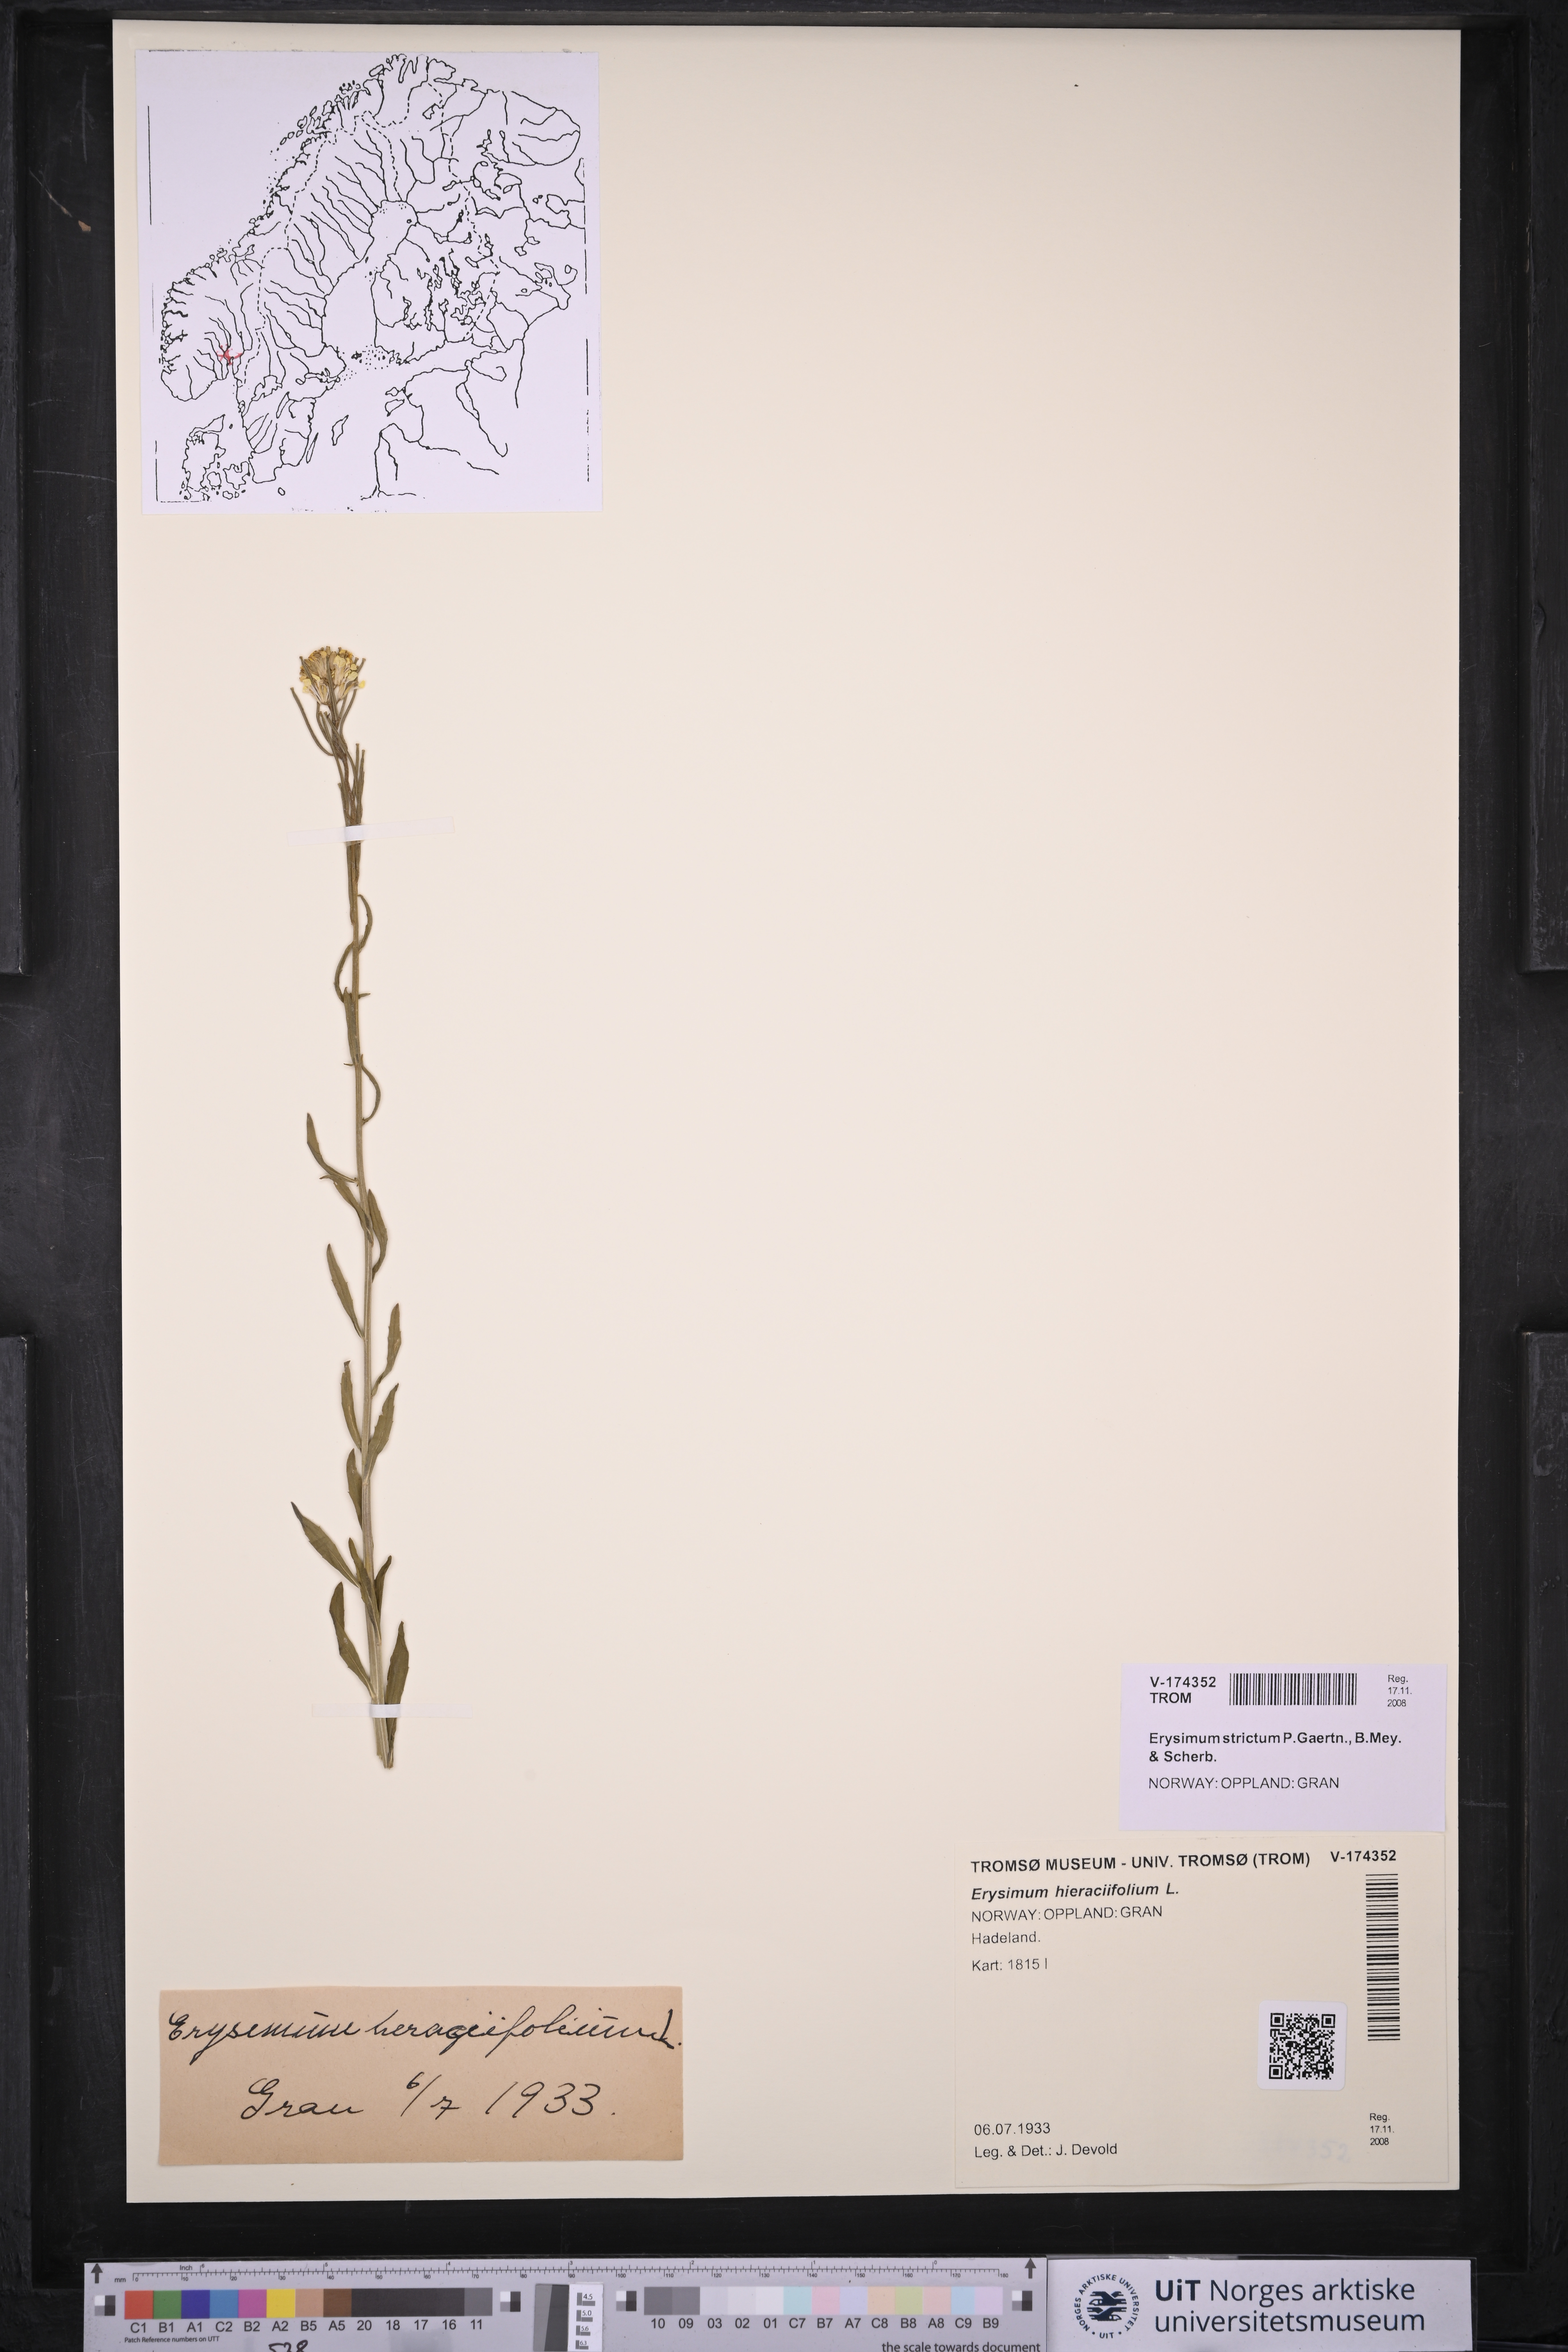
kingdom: Plantae
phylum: Tracheophyta
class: Magnoliopsida
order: Brassicales
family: Brassicaceae
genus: Erysimum
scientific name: Erysimum virgatum
